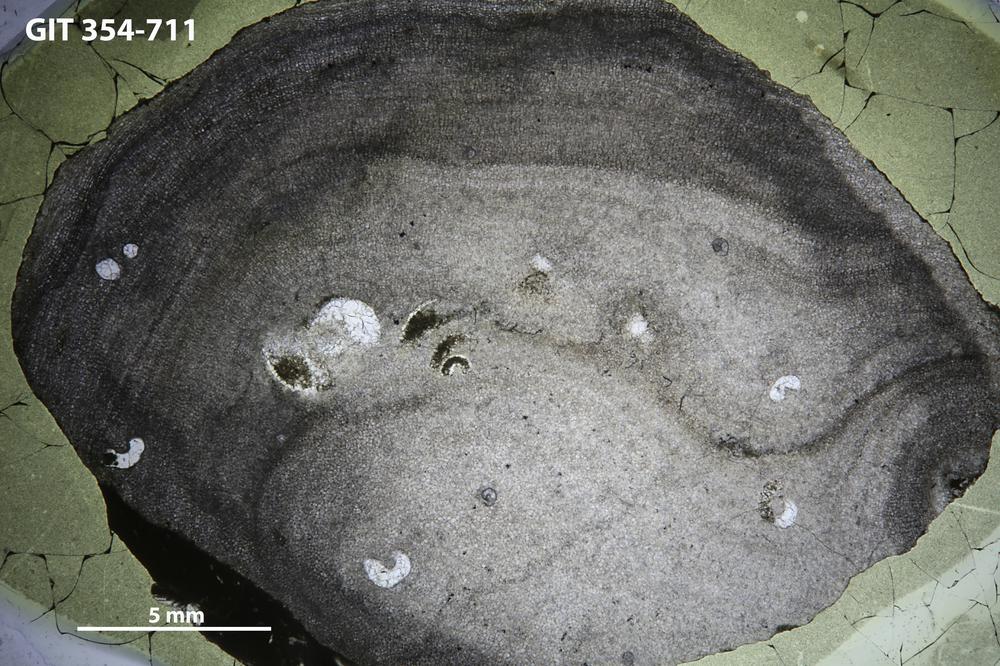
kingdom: Animalia
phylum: Porifera
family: Actinostromatidae
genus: Plectostroma
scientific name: Plectostroma
